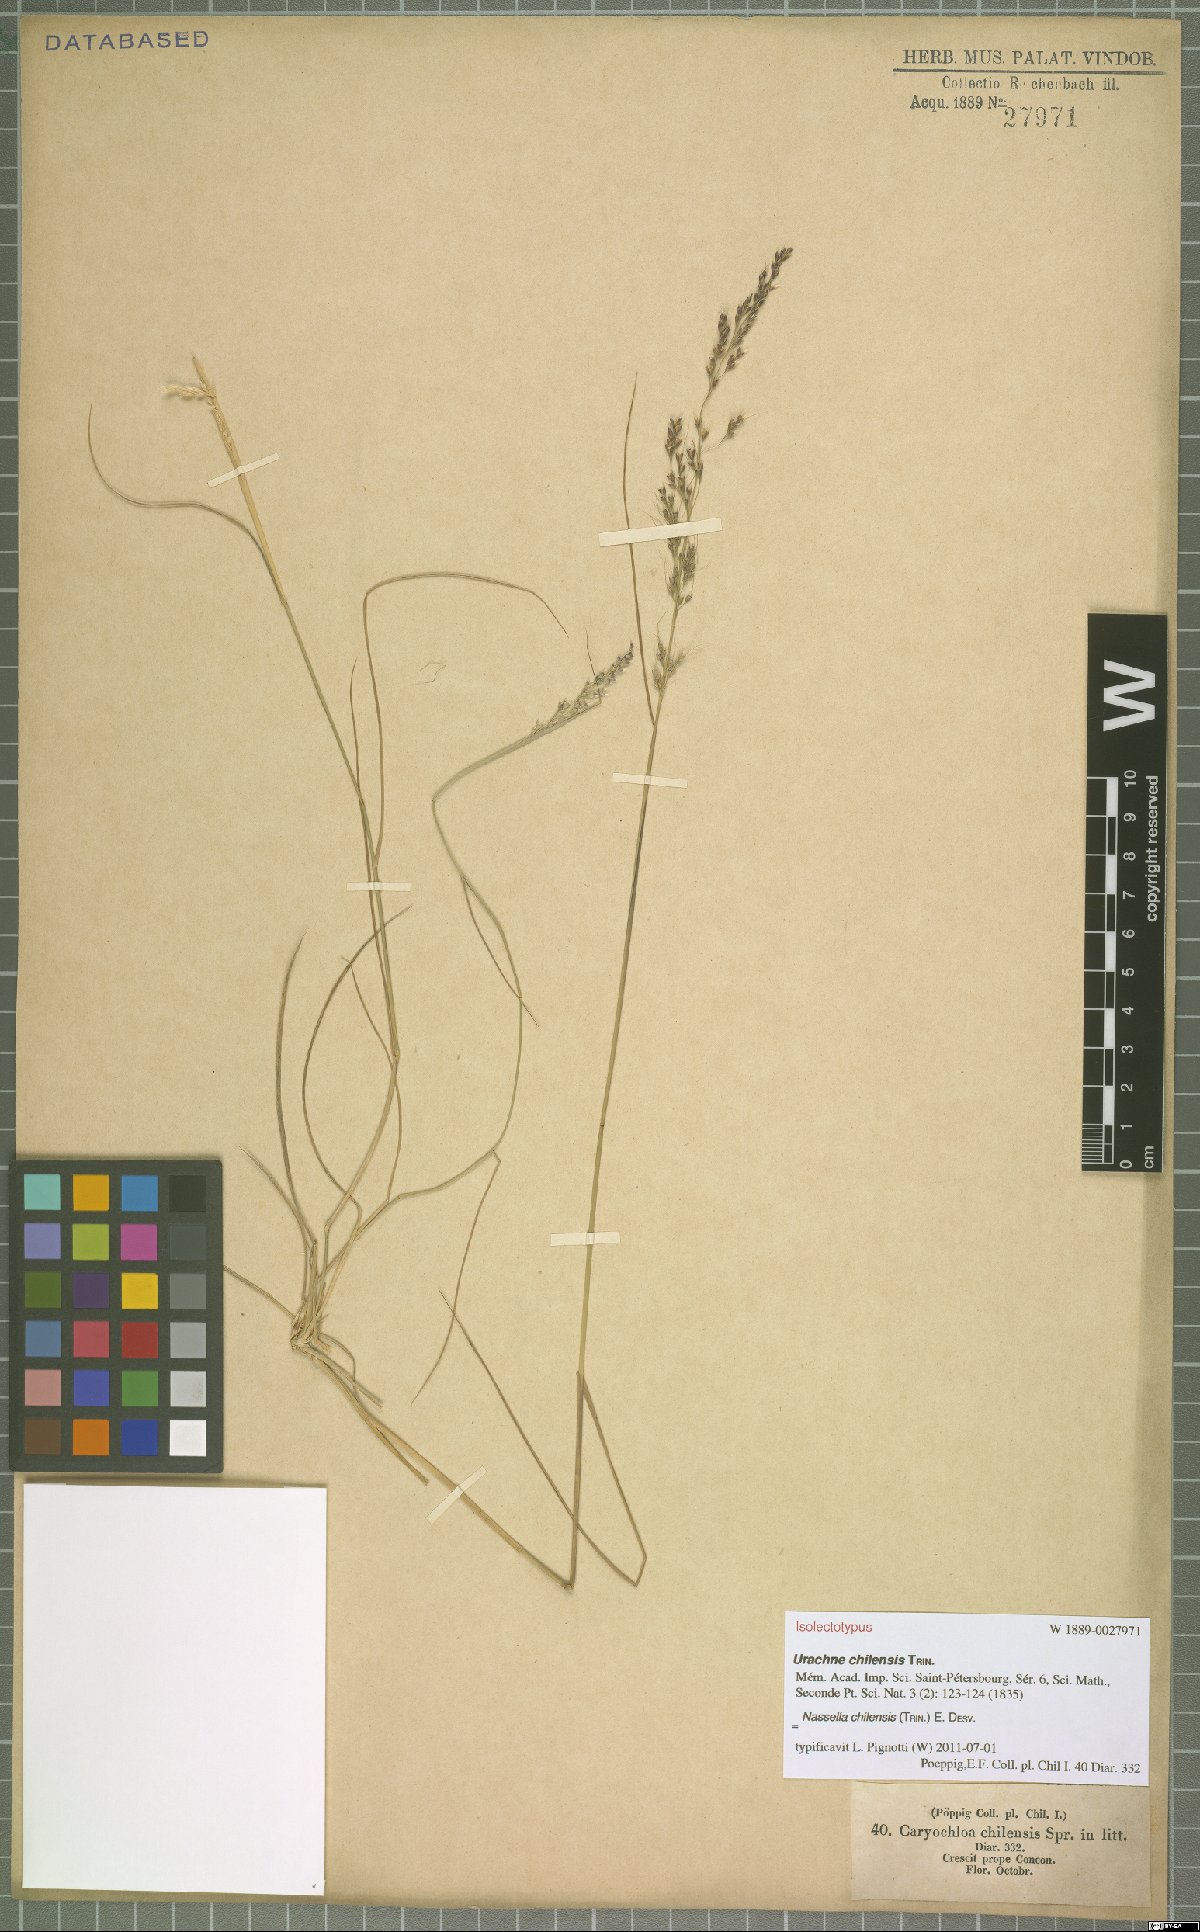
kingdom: Plantae
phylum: Tracheophyta
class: Liliopsida
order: Poales
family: Poaceae
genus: Nassella
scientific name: Nassella chilensis
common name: Chilean needlegrass
